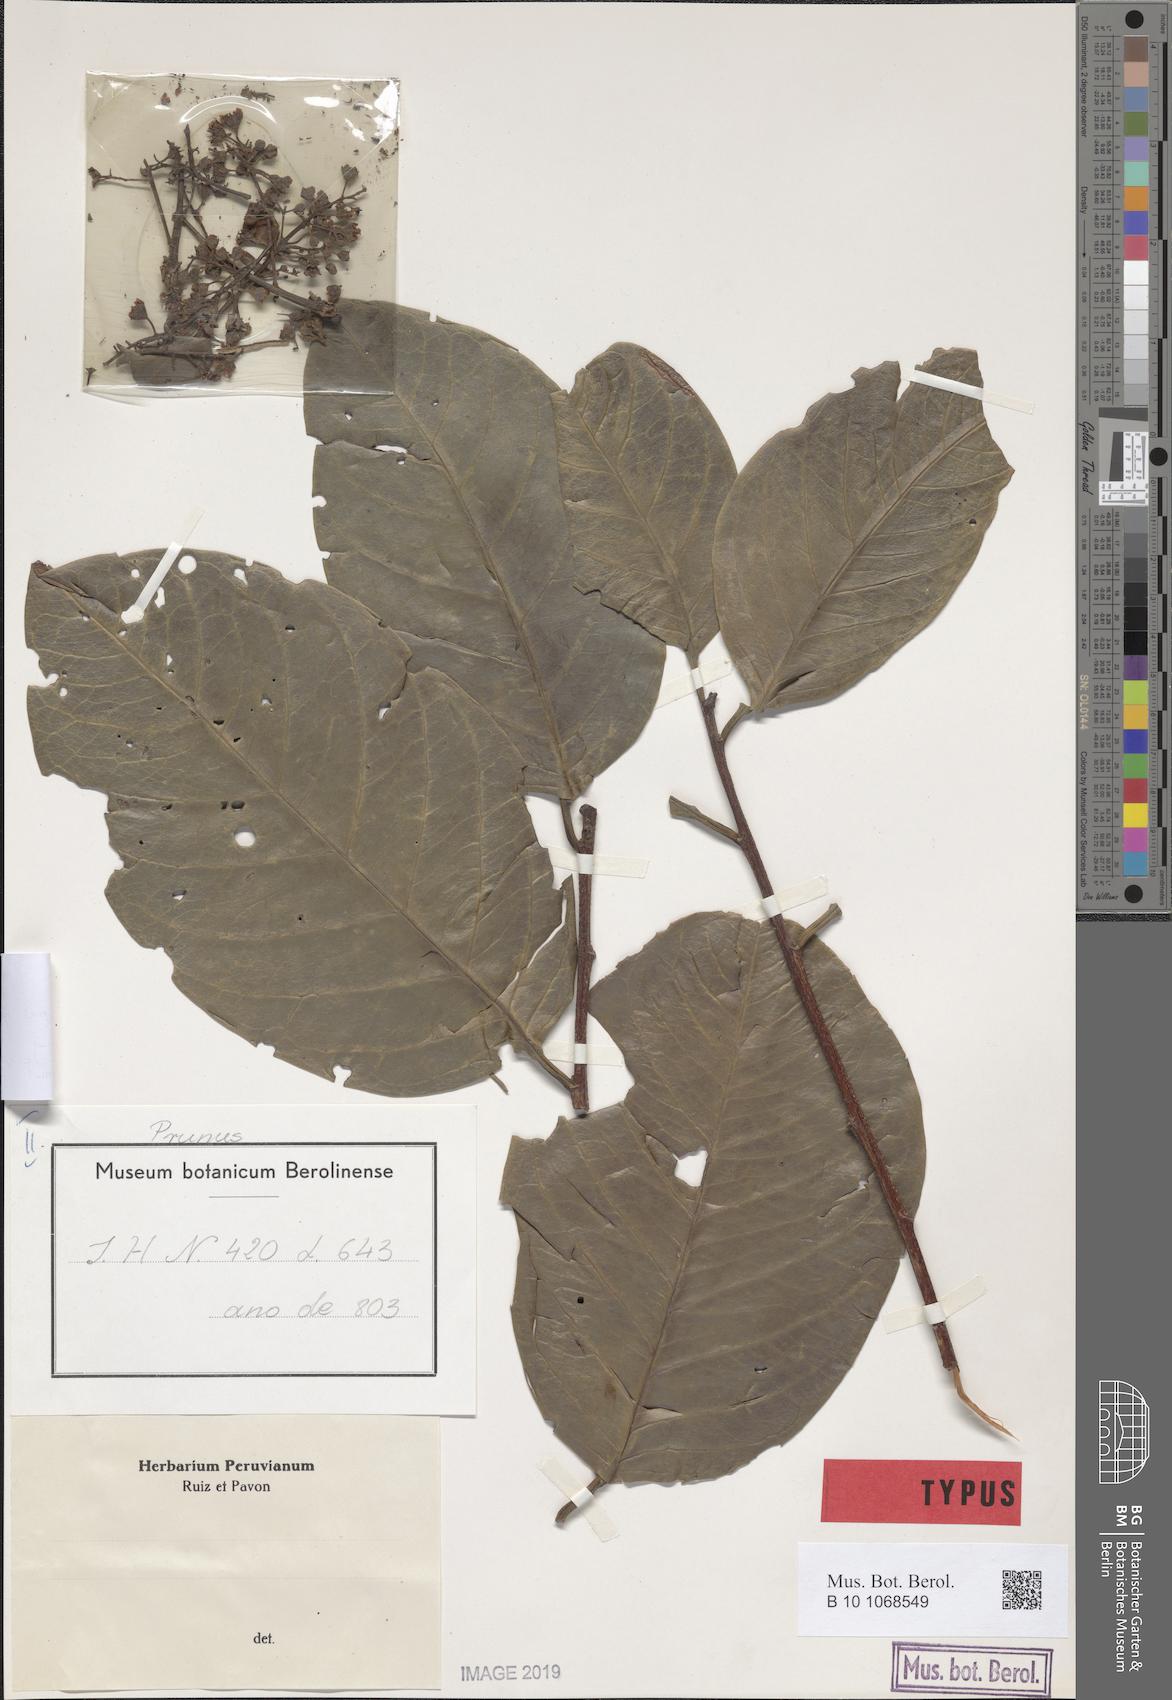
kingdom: Plantae
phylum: Tracheophyta
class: Magnoliopsida
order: Rosales
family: Rosaceae
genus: Prunus
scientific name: Prunus subcorymbosa
